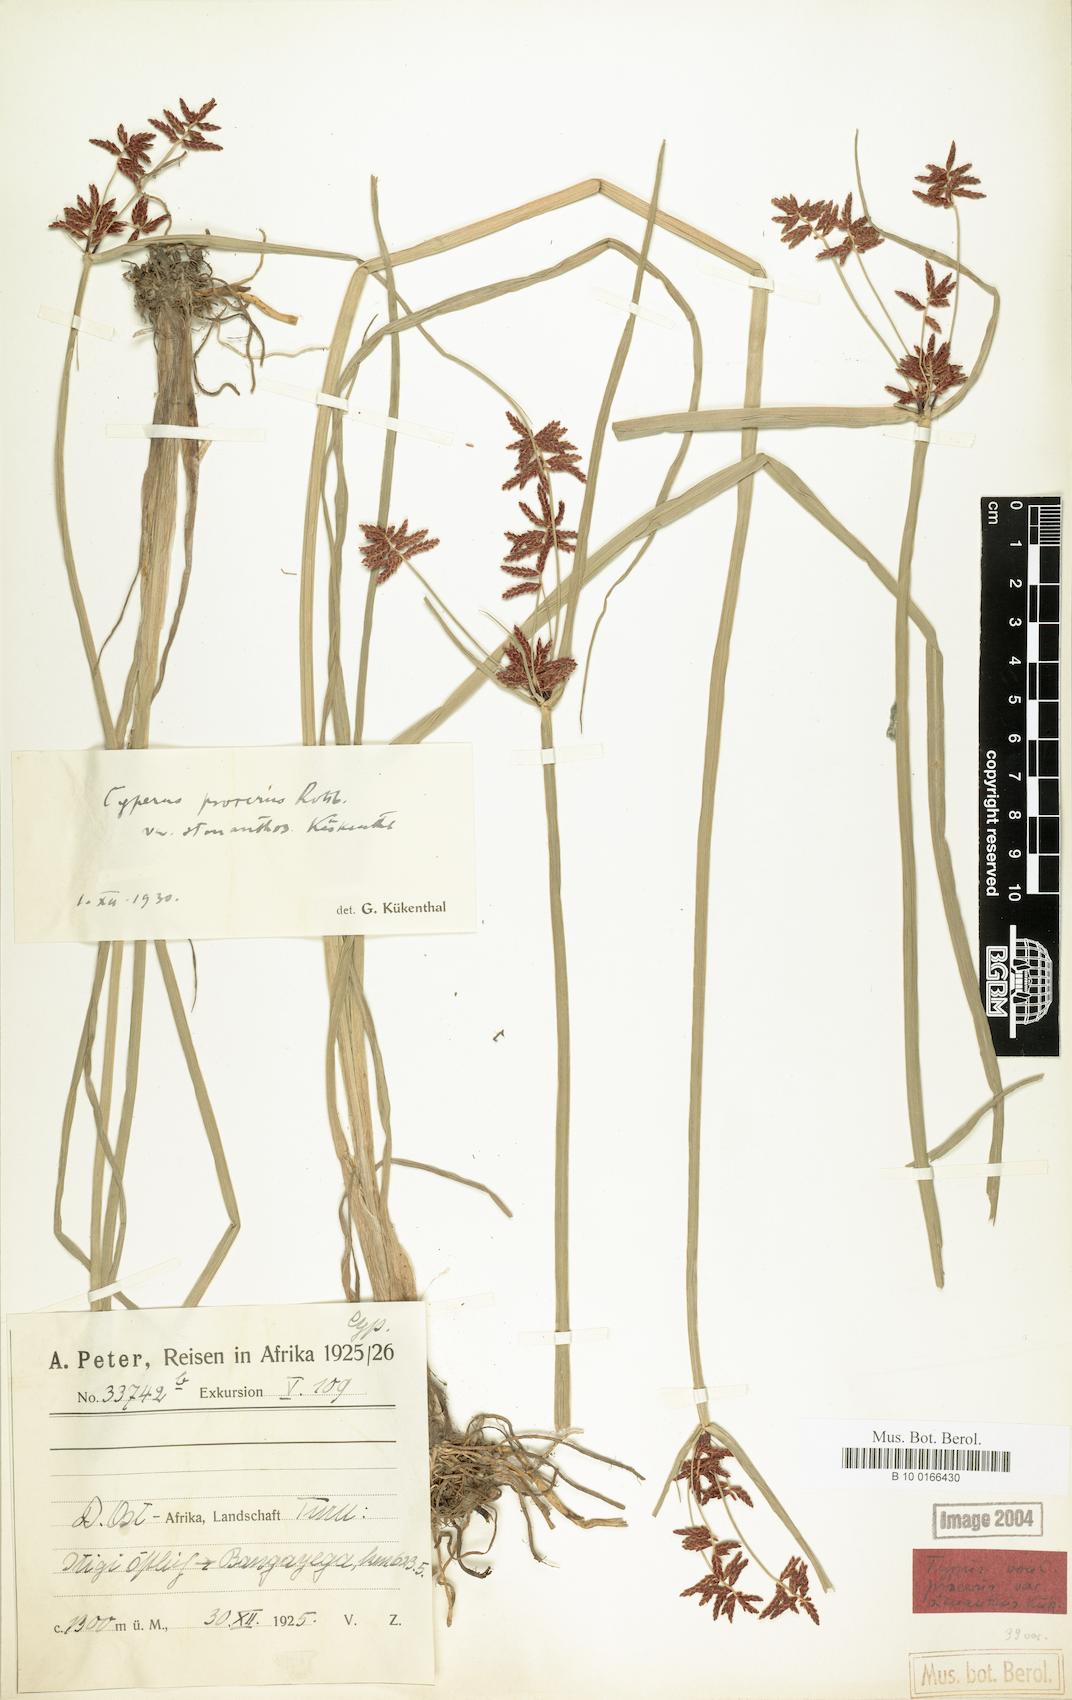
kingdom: Plantae
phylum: Tracheophyta
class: Liliopsida
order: Poales
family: Cyperaceae
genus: Cyperus
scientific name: Cyperus procerus
